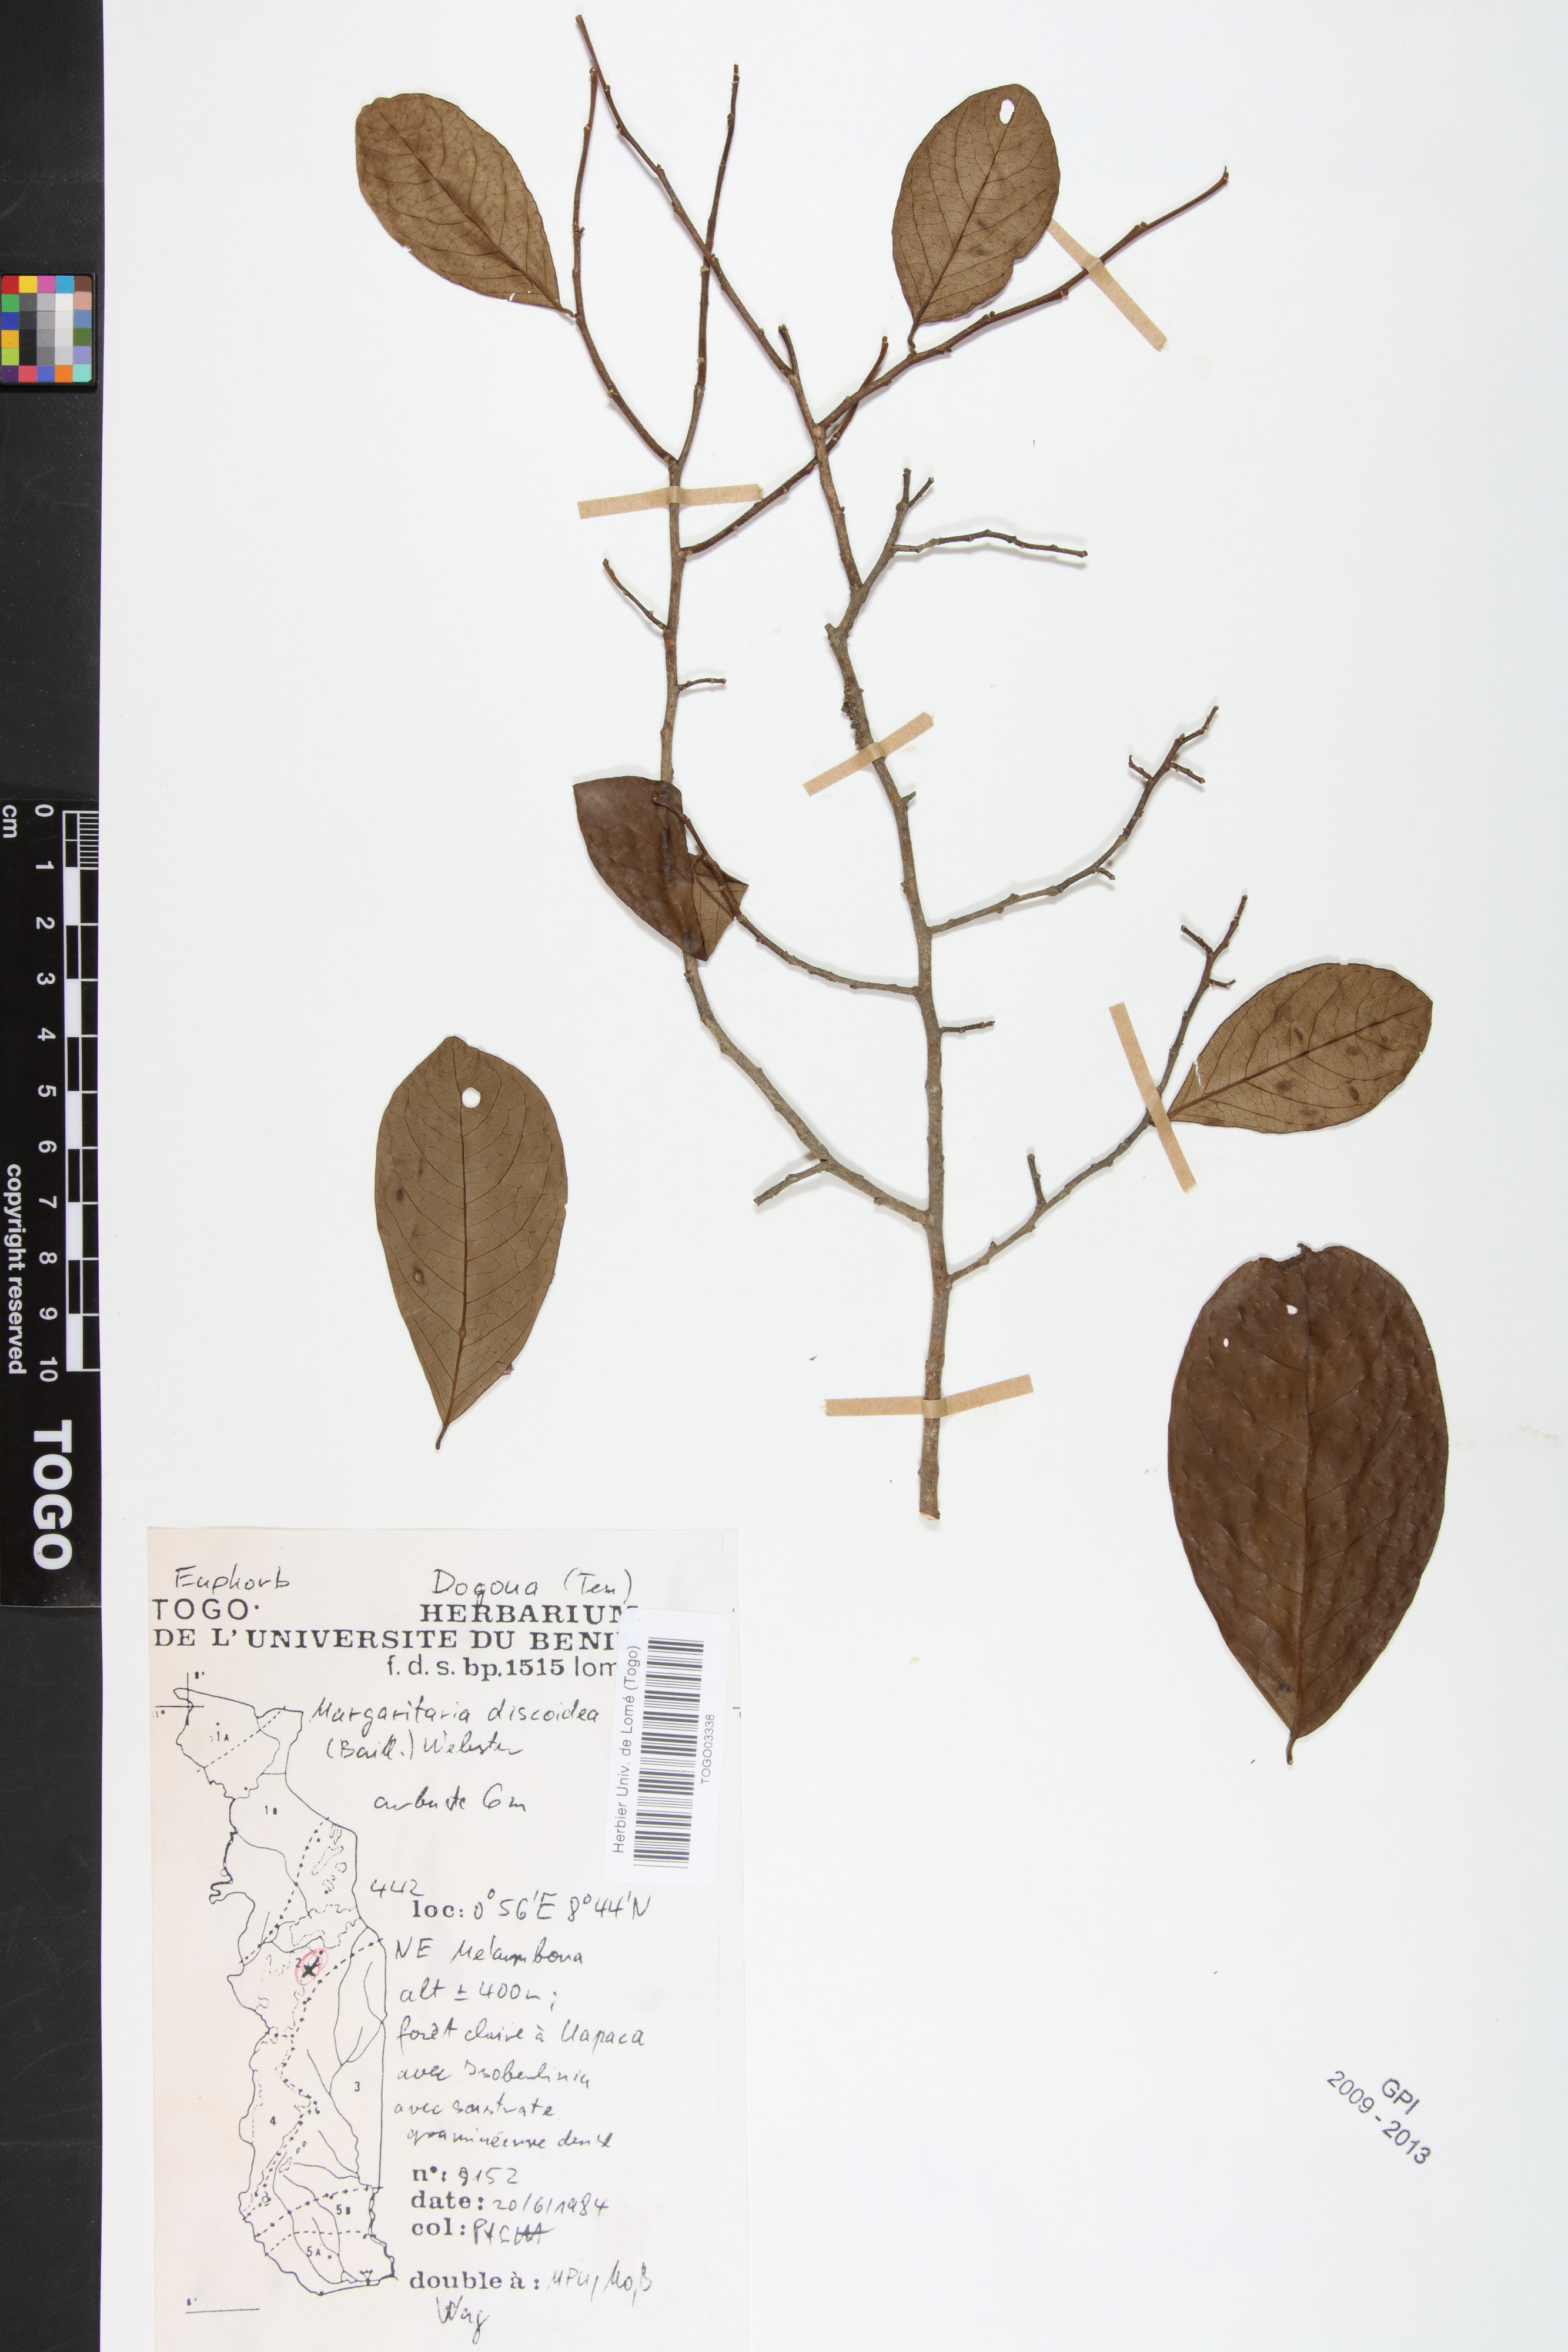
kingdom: Plantae
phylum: Tracheophyta
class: Magnoliopsida
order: Malpighiales
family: Phyllanthaceae
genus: Margaritaria
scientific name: Margaritaria discoidea
